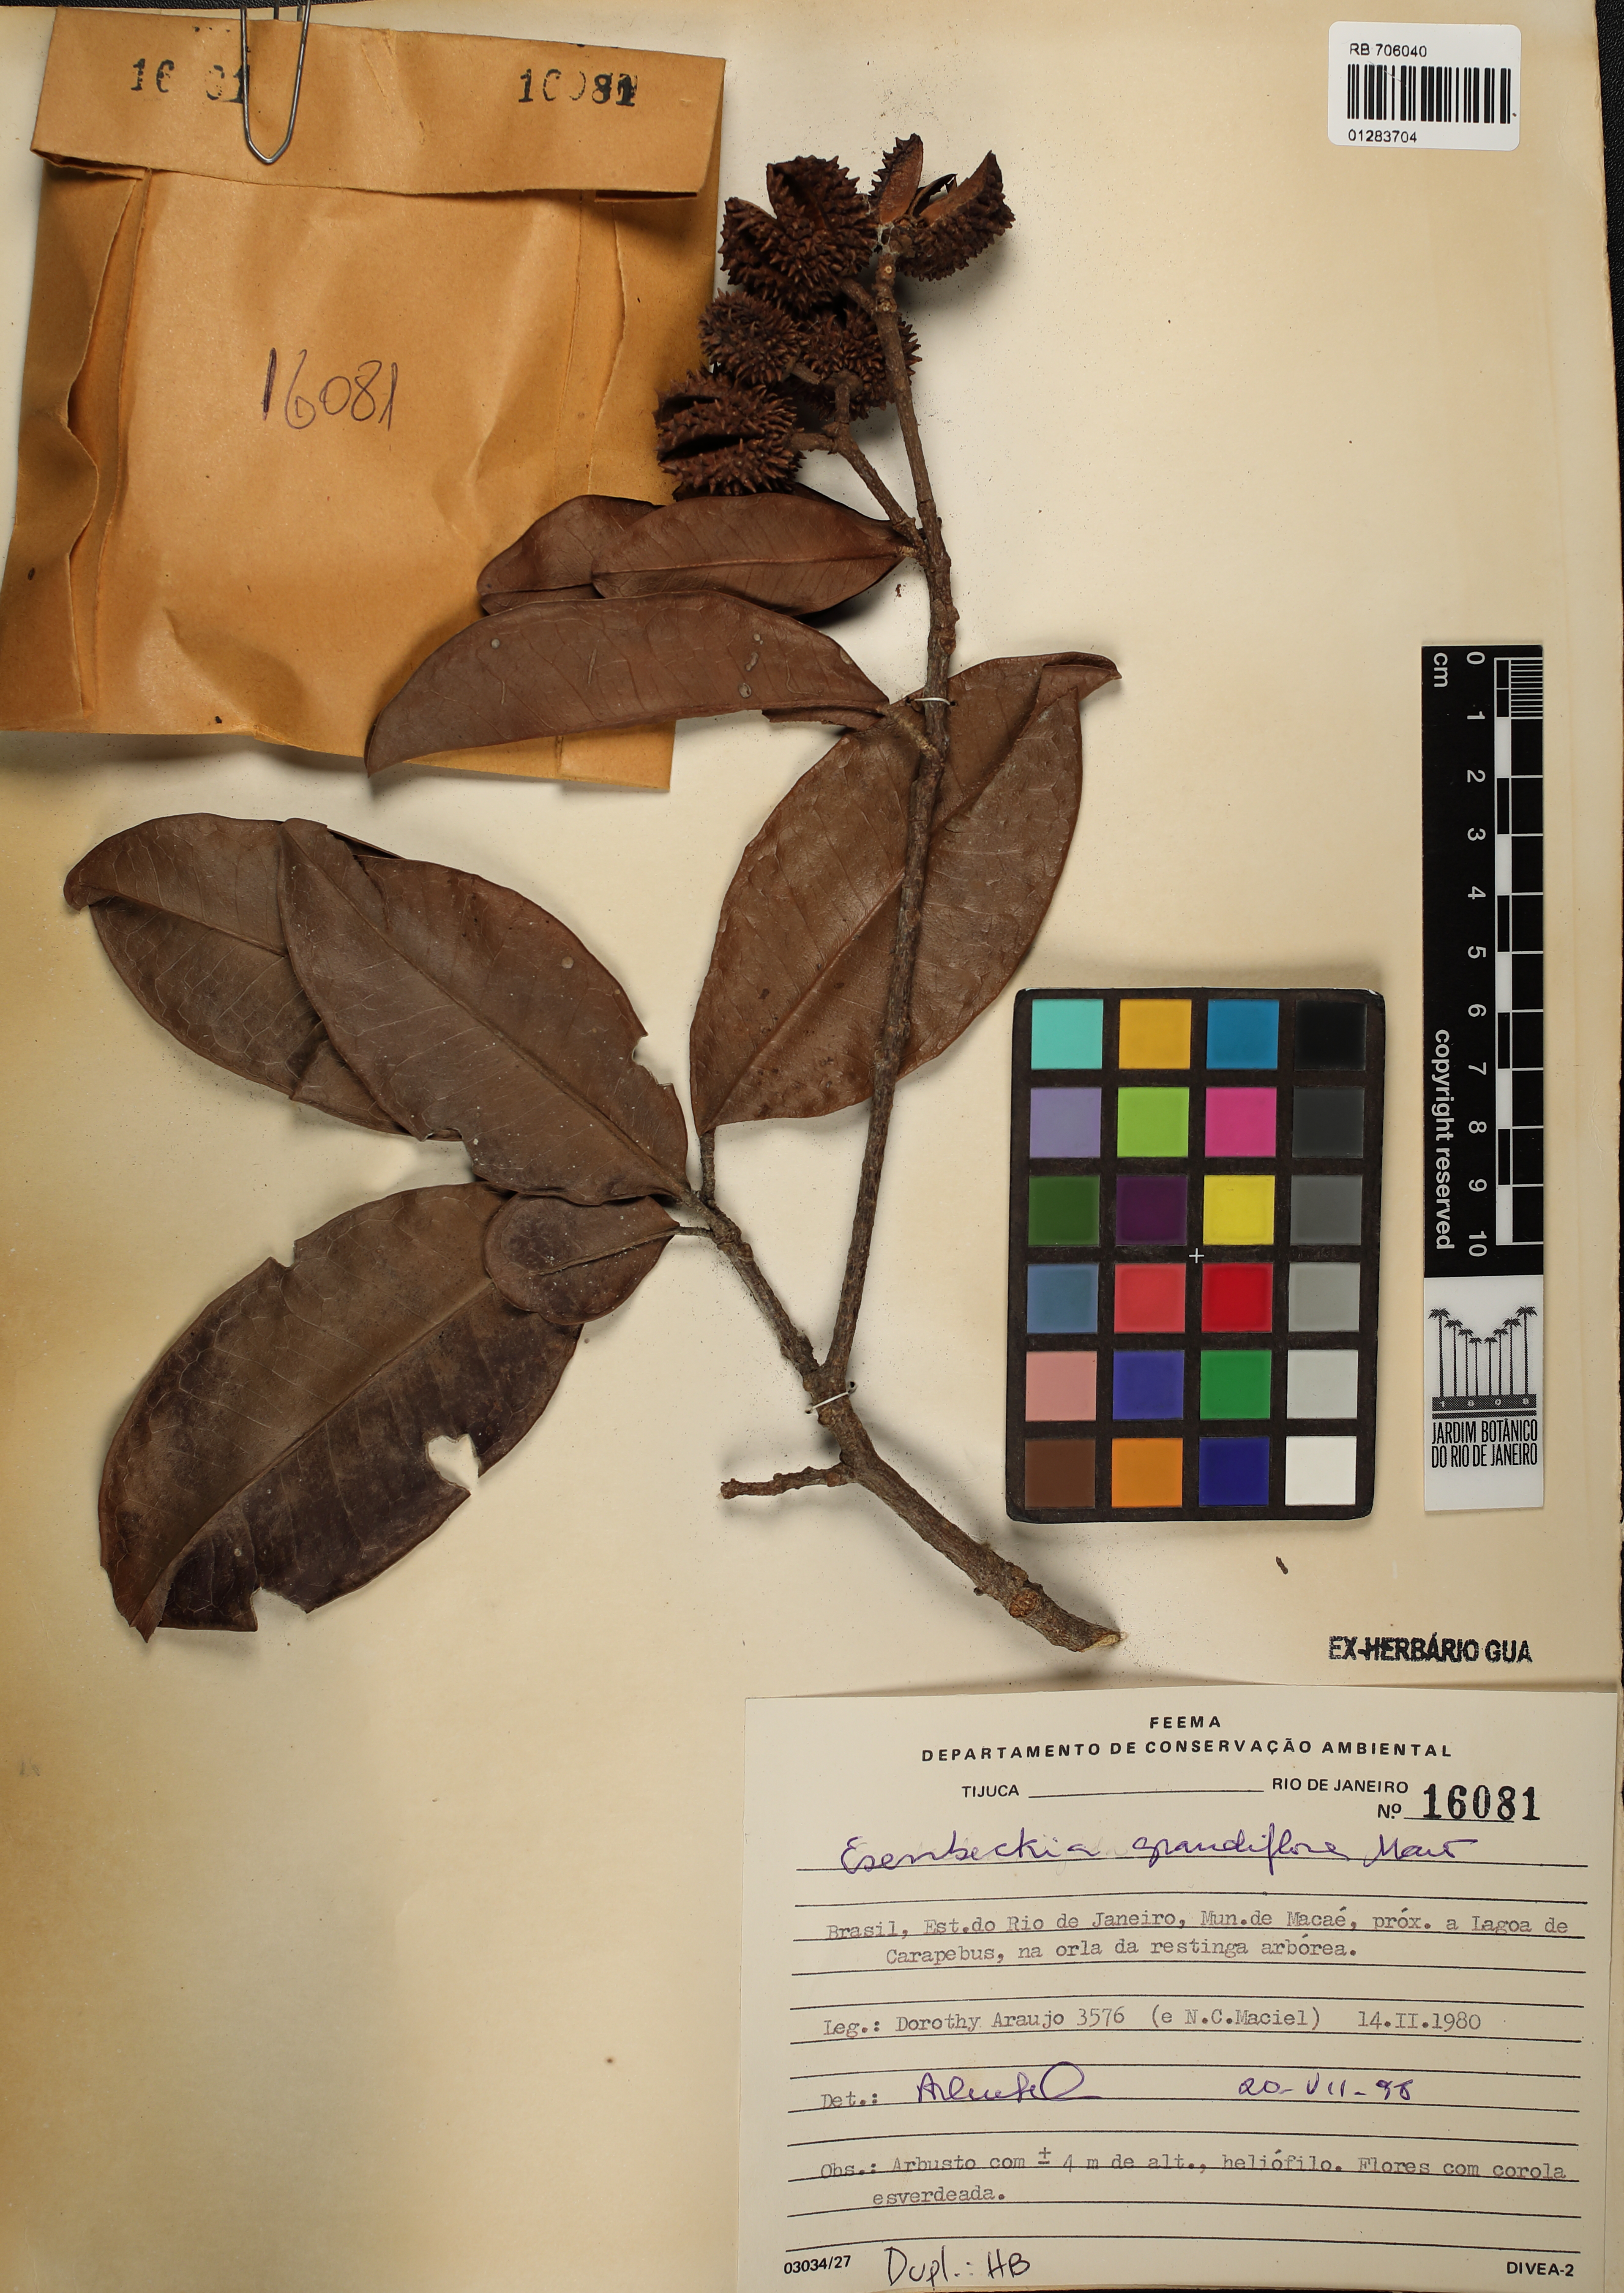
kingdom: Plantae
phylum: Tracheophyta
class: Magnoliopsida
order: Sapindales
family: Rutaceae
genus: Esenbeckia
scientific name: Esenbeckia grandiflora
